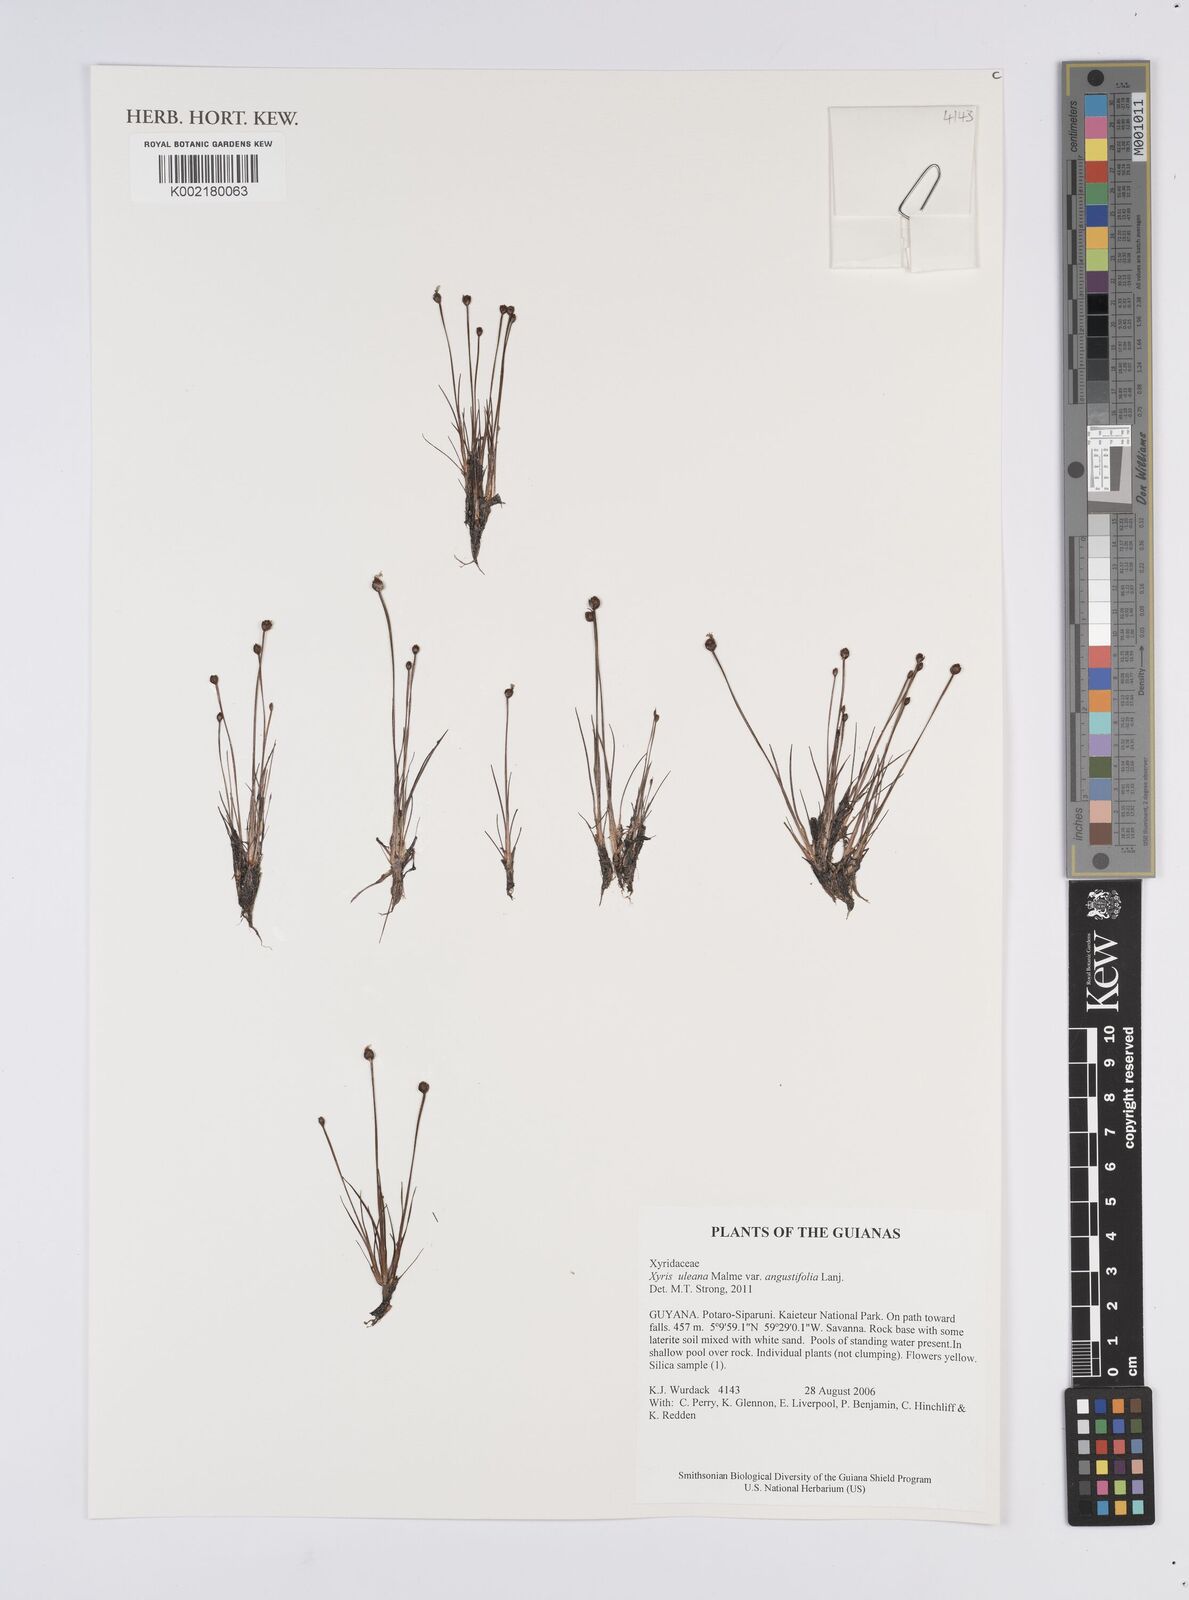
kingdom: Plantae
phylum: Tracheophyta
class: Liliopsida
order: Poales
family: Xyridaceae
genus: Xyris
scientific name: Xyris uleana
